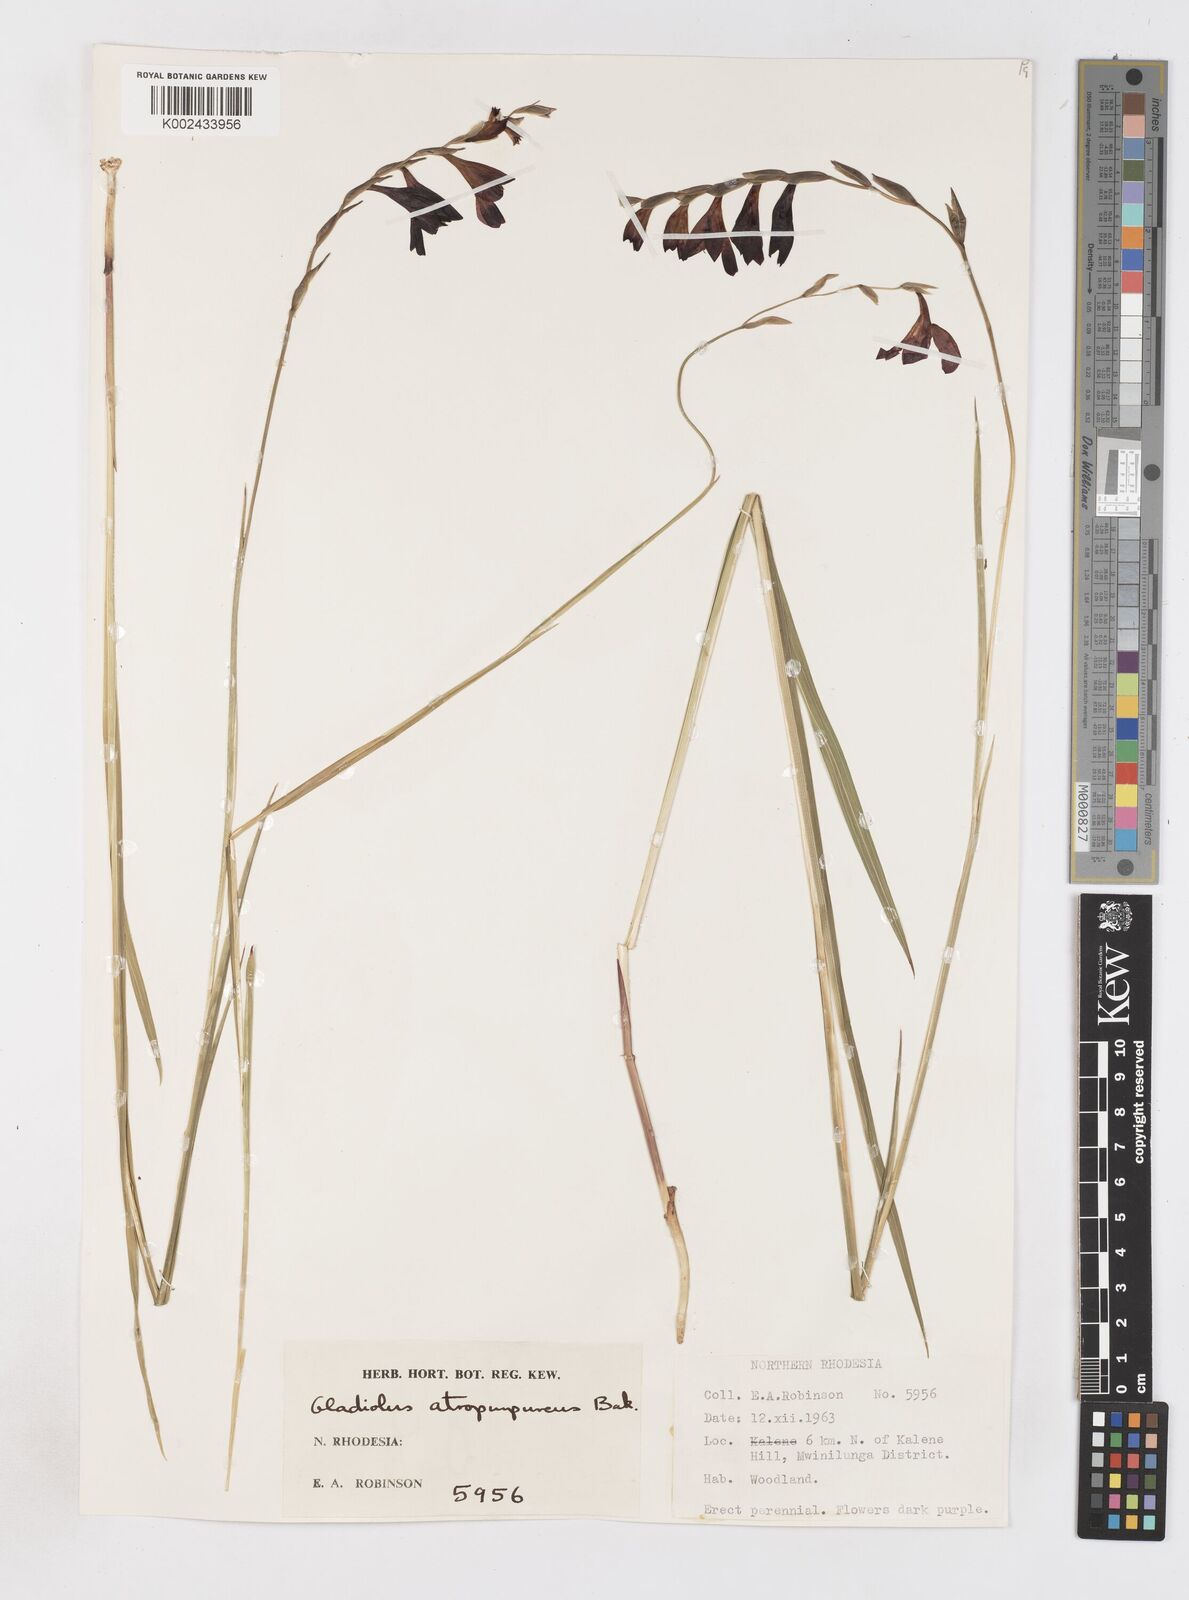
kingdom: Plantae
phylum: Tracheophyta
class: Liliopsida
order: Asparagales
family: Iridaceae
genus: Gladiolus
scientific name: Gladiolus atropurpureus
